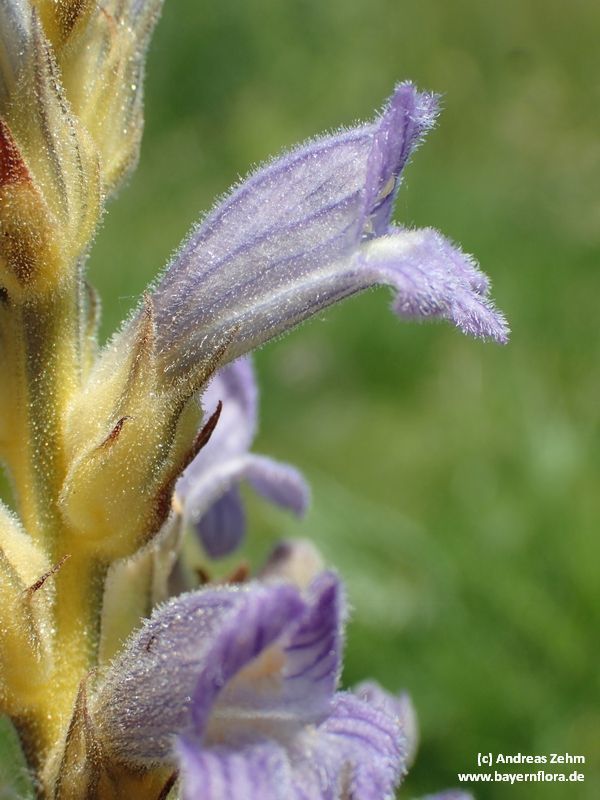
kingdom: Plantae
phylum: Tracheophyta
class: Magnoliopsida
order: Lamiales
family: Orobanchaceae
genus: Phelipanche
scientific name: Phelipanche purpurea
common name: Purple broomrape
